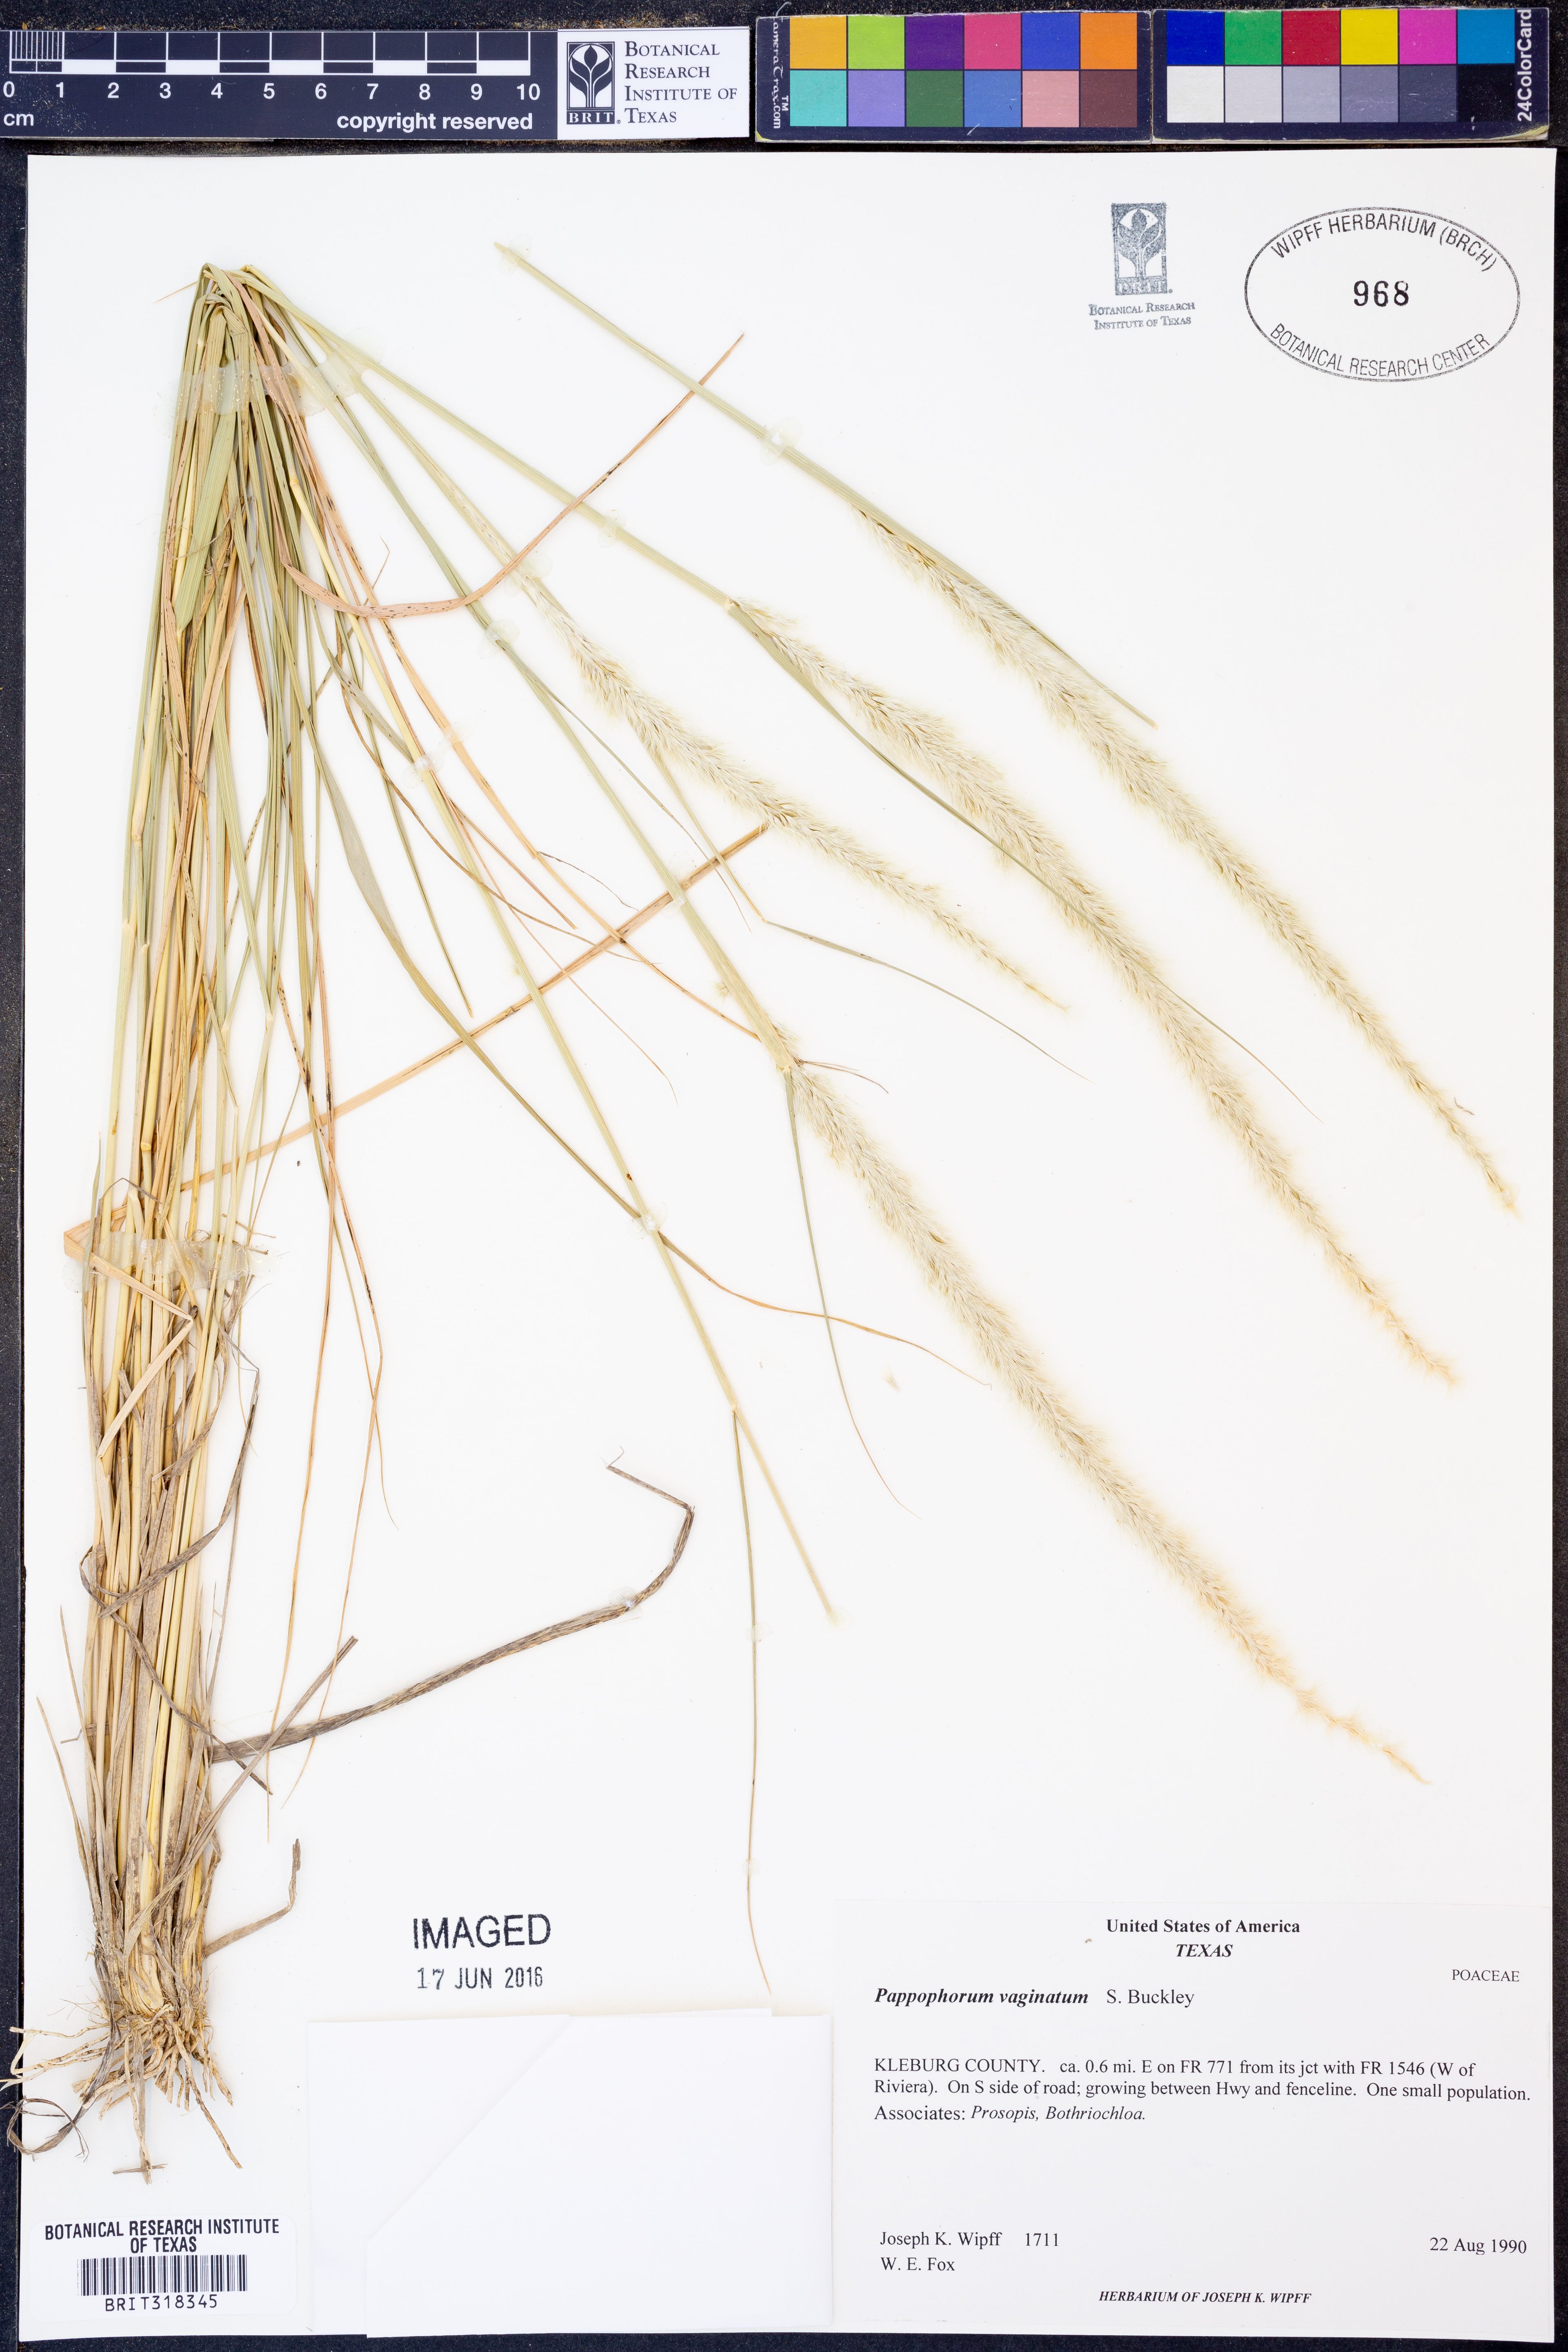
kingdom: Plantae
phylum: Tracheophyta
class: Liliopsida
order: Poales
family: Poaceae
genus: Pappophorum
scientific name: Pappophorum mucronulatum
